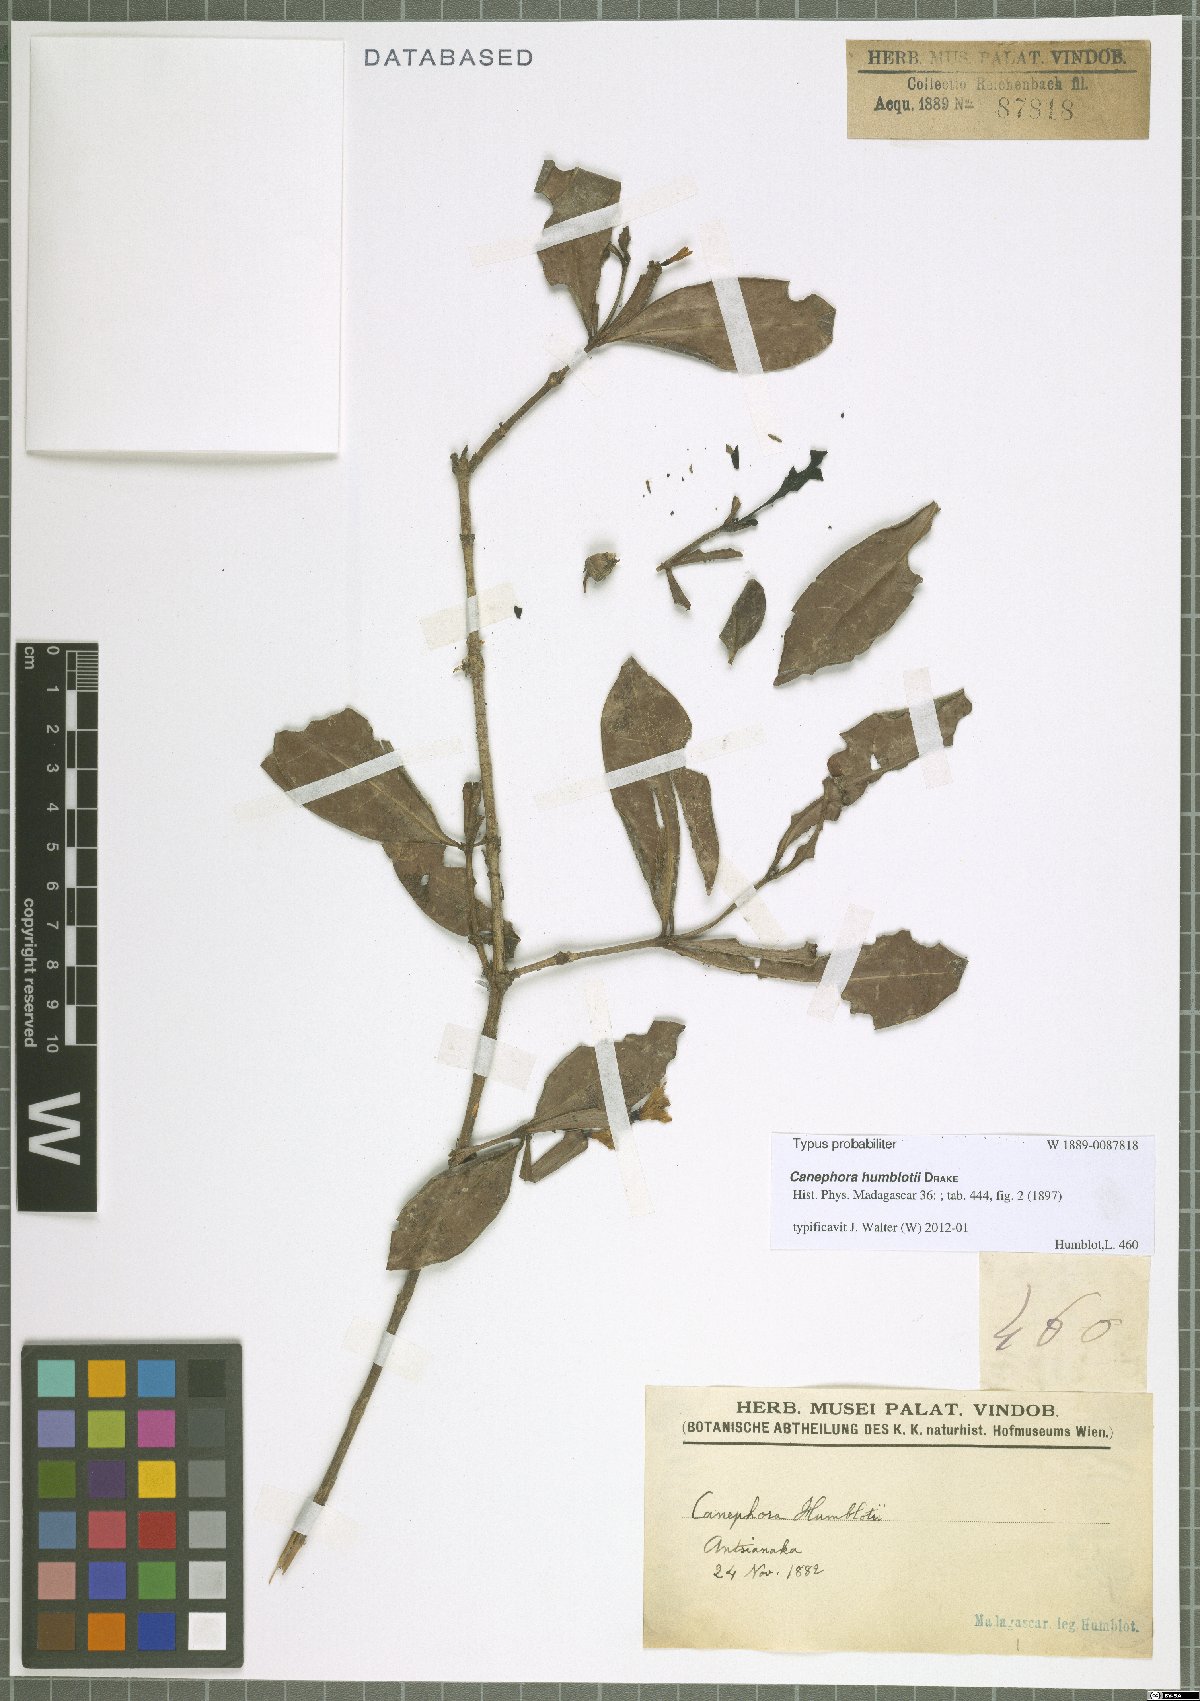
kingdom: Plantae
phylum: Tracheophyta
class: Magnoliopsida
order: Gentianales
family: Rubiaceae
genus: Canephora
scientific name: Canephora humblotii
